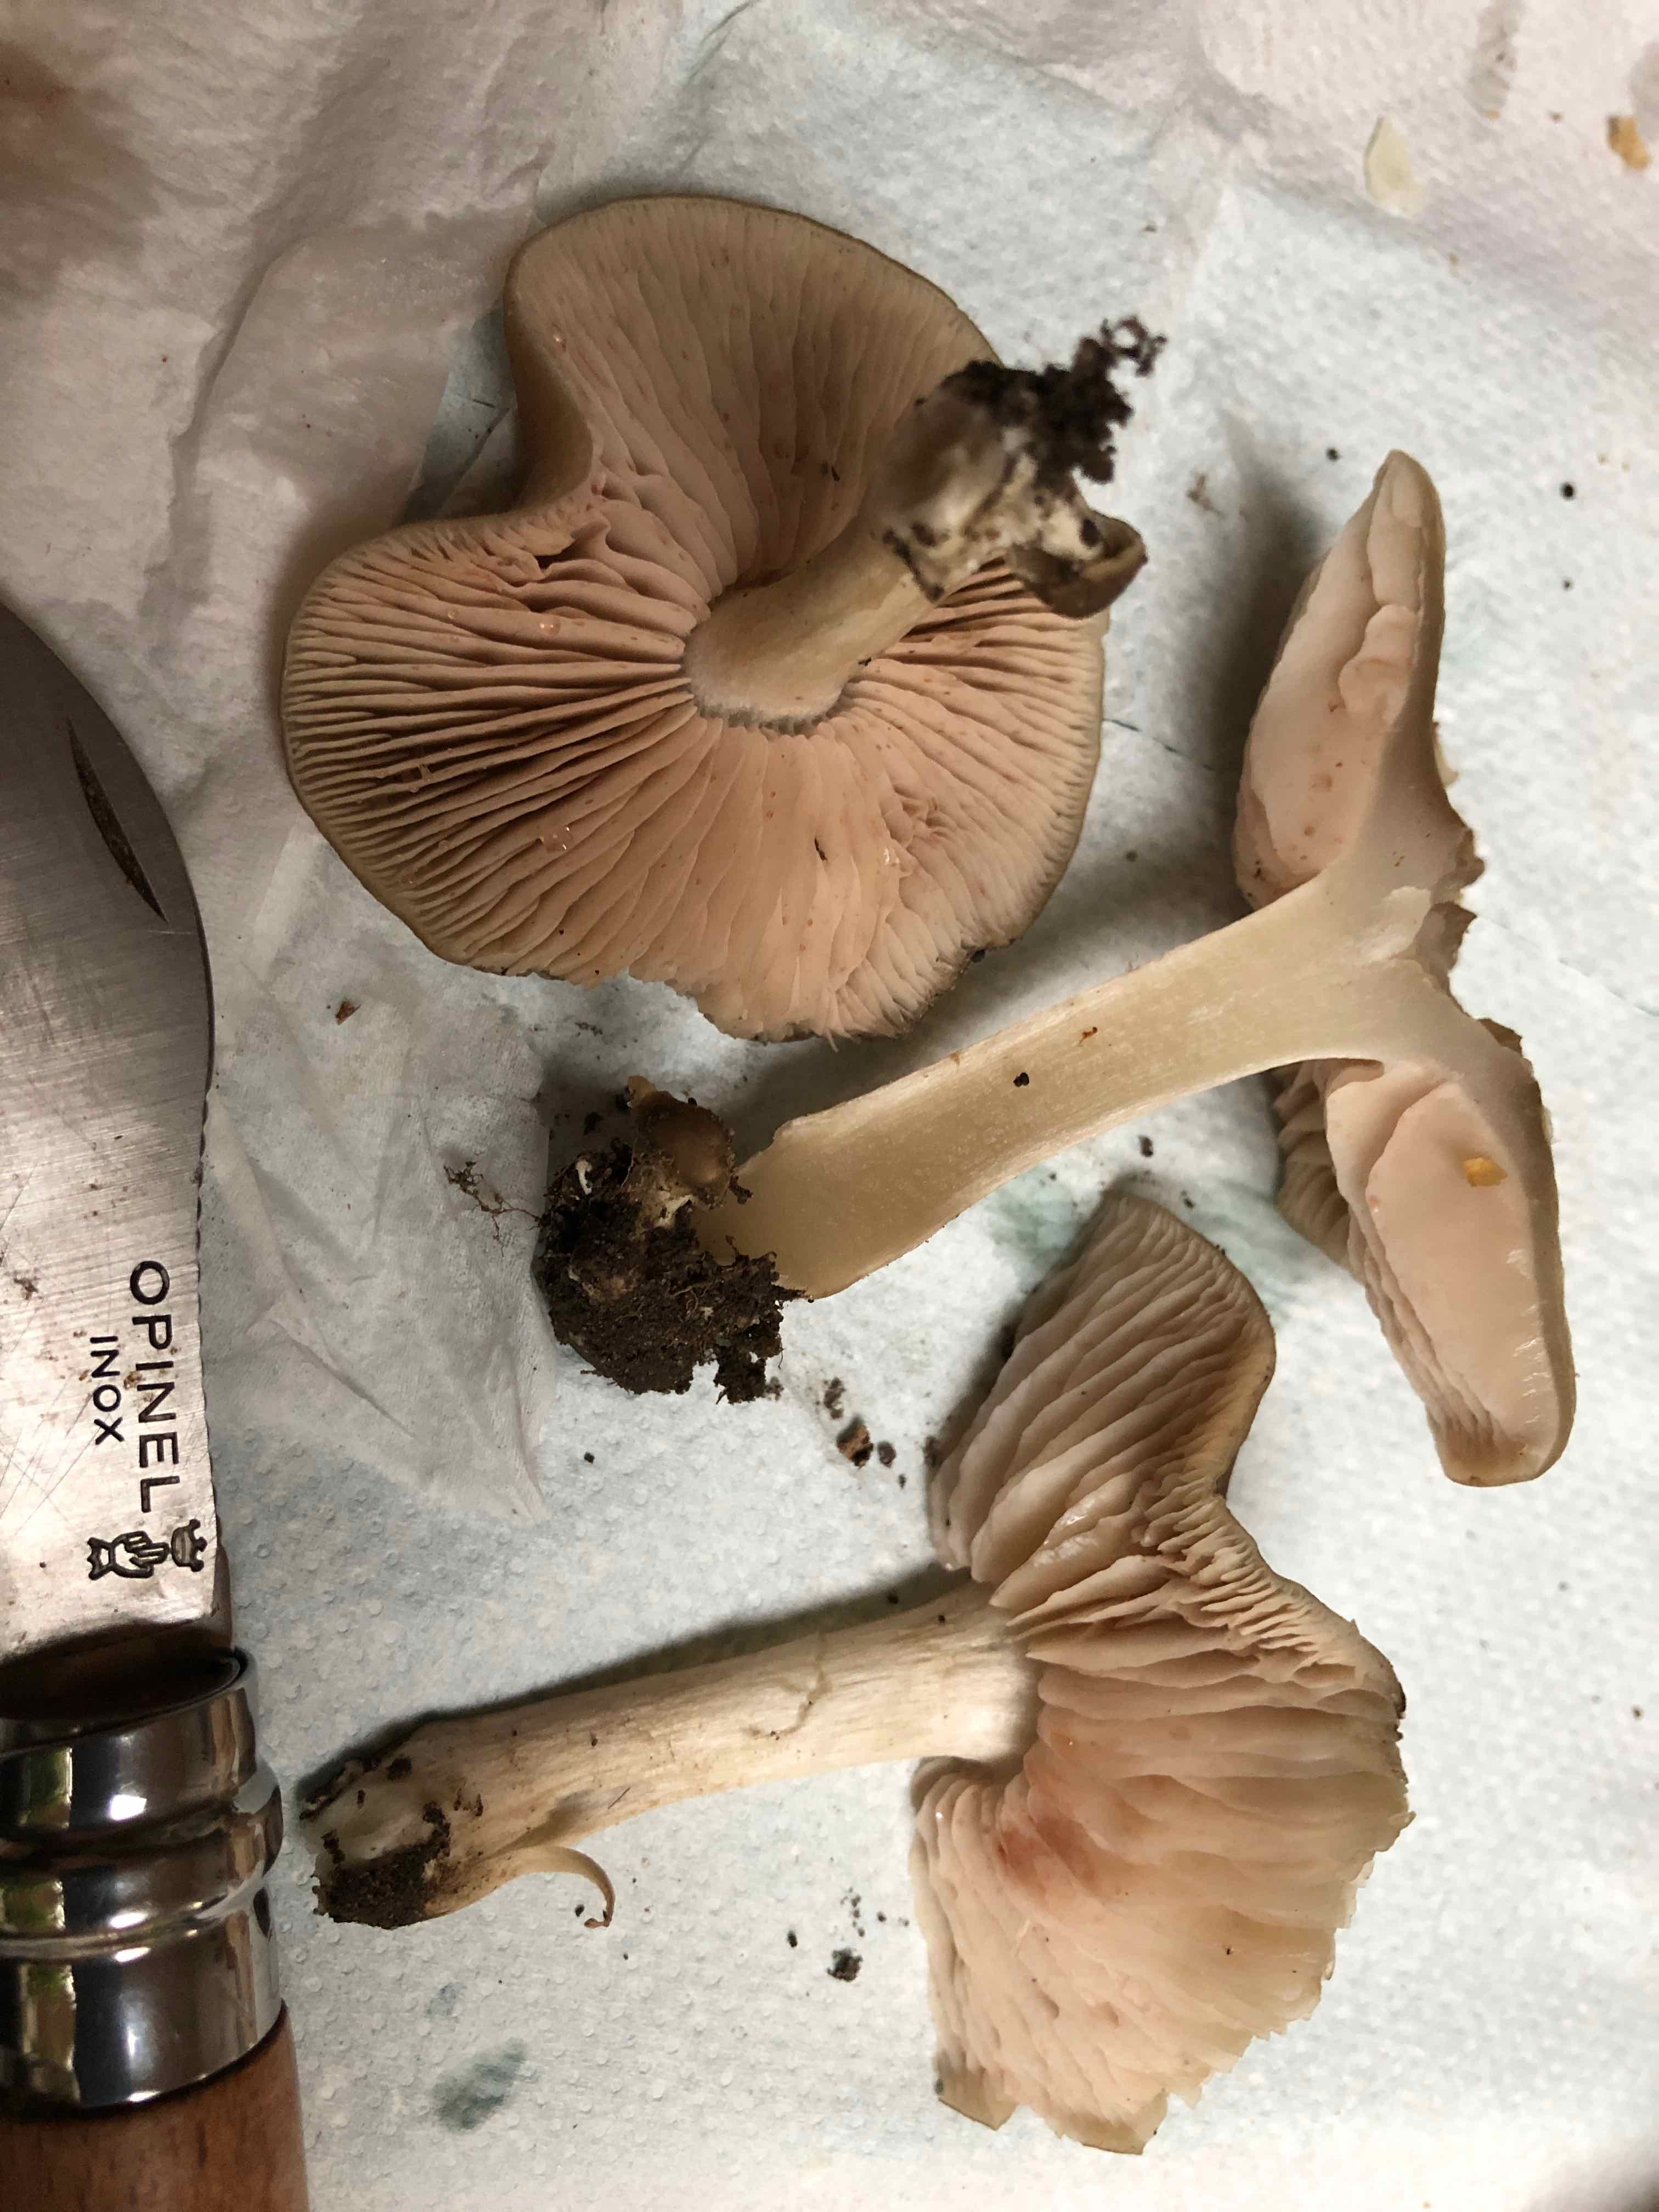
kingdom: Fungi
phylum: Basidiomycota
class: Agaricomycetes
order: Agaricales
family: Entolomataceae
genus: Entoloma
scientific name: Entoloma lividoalbum
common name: lysstokket rødblad
